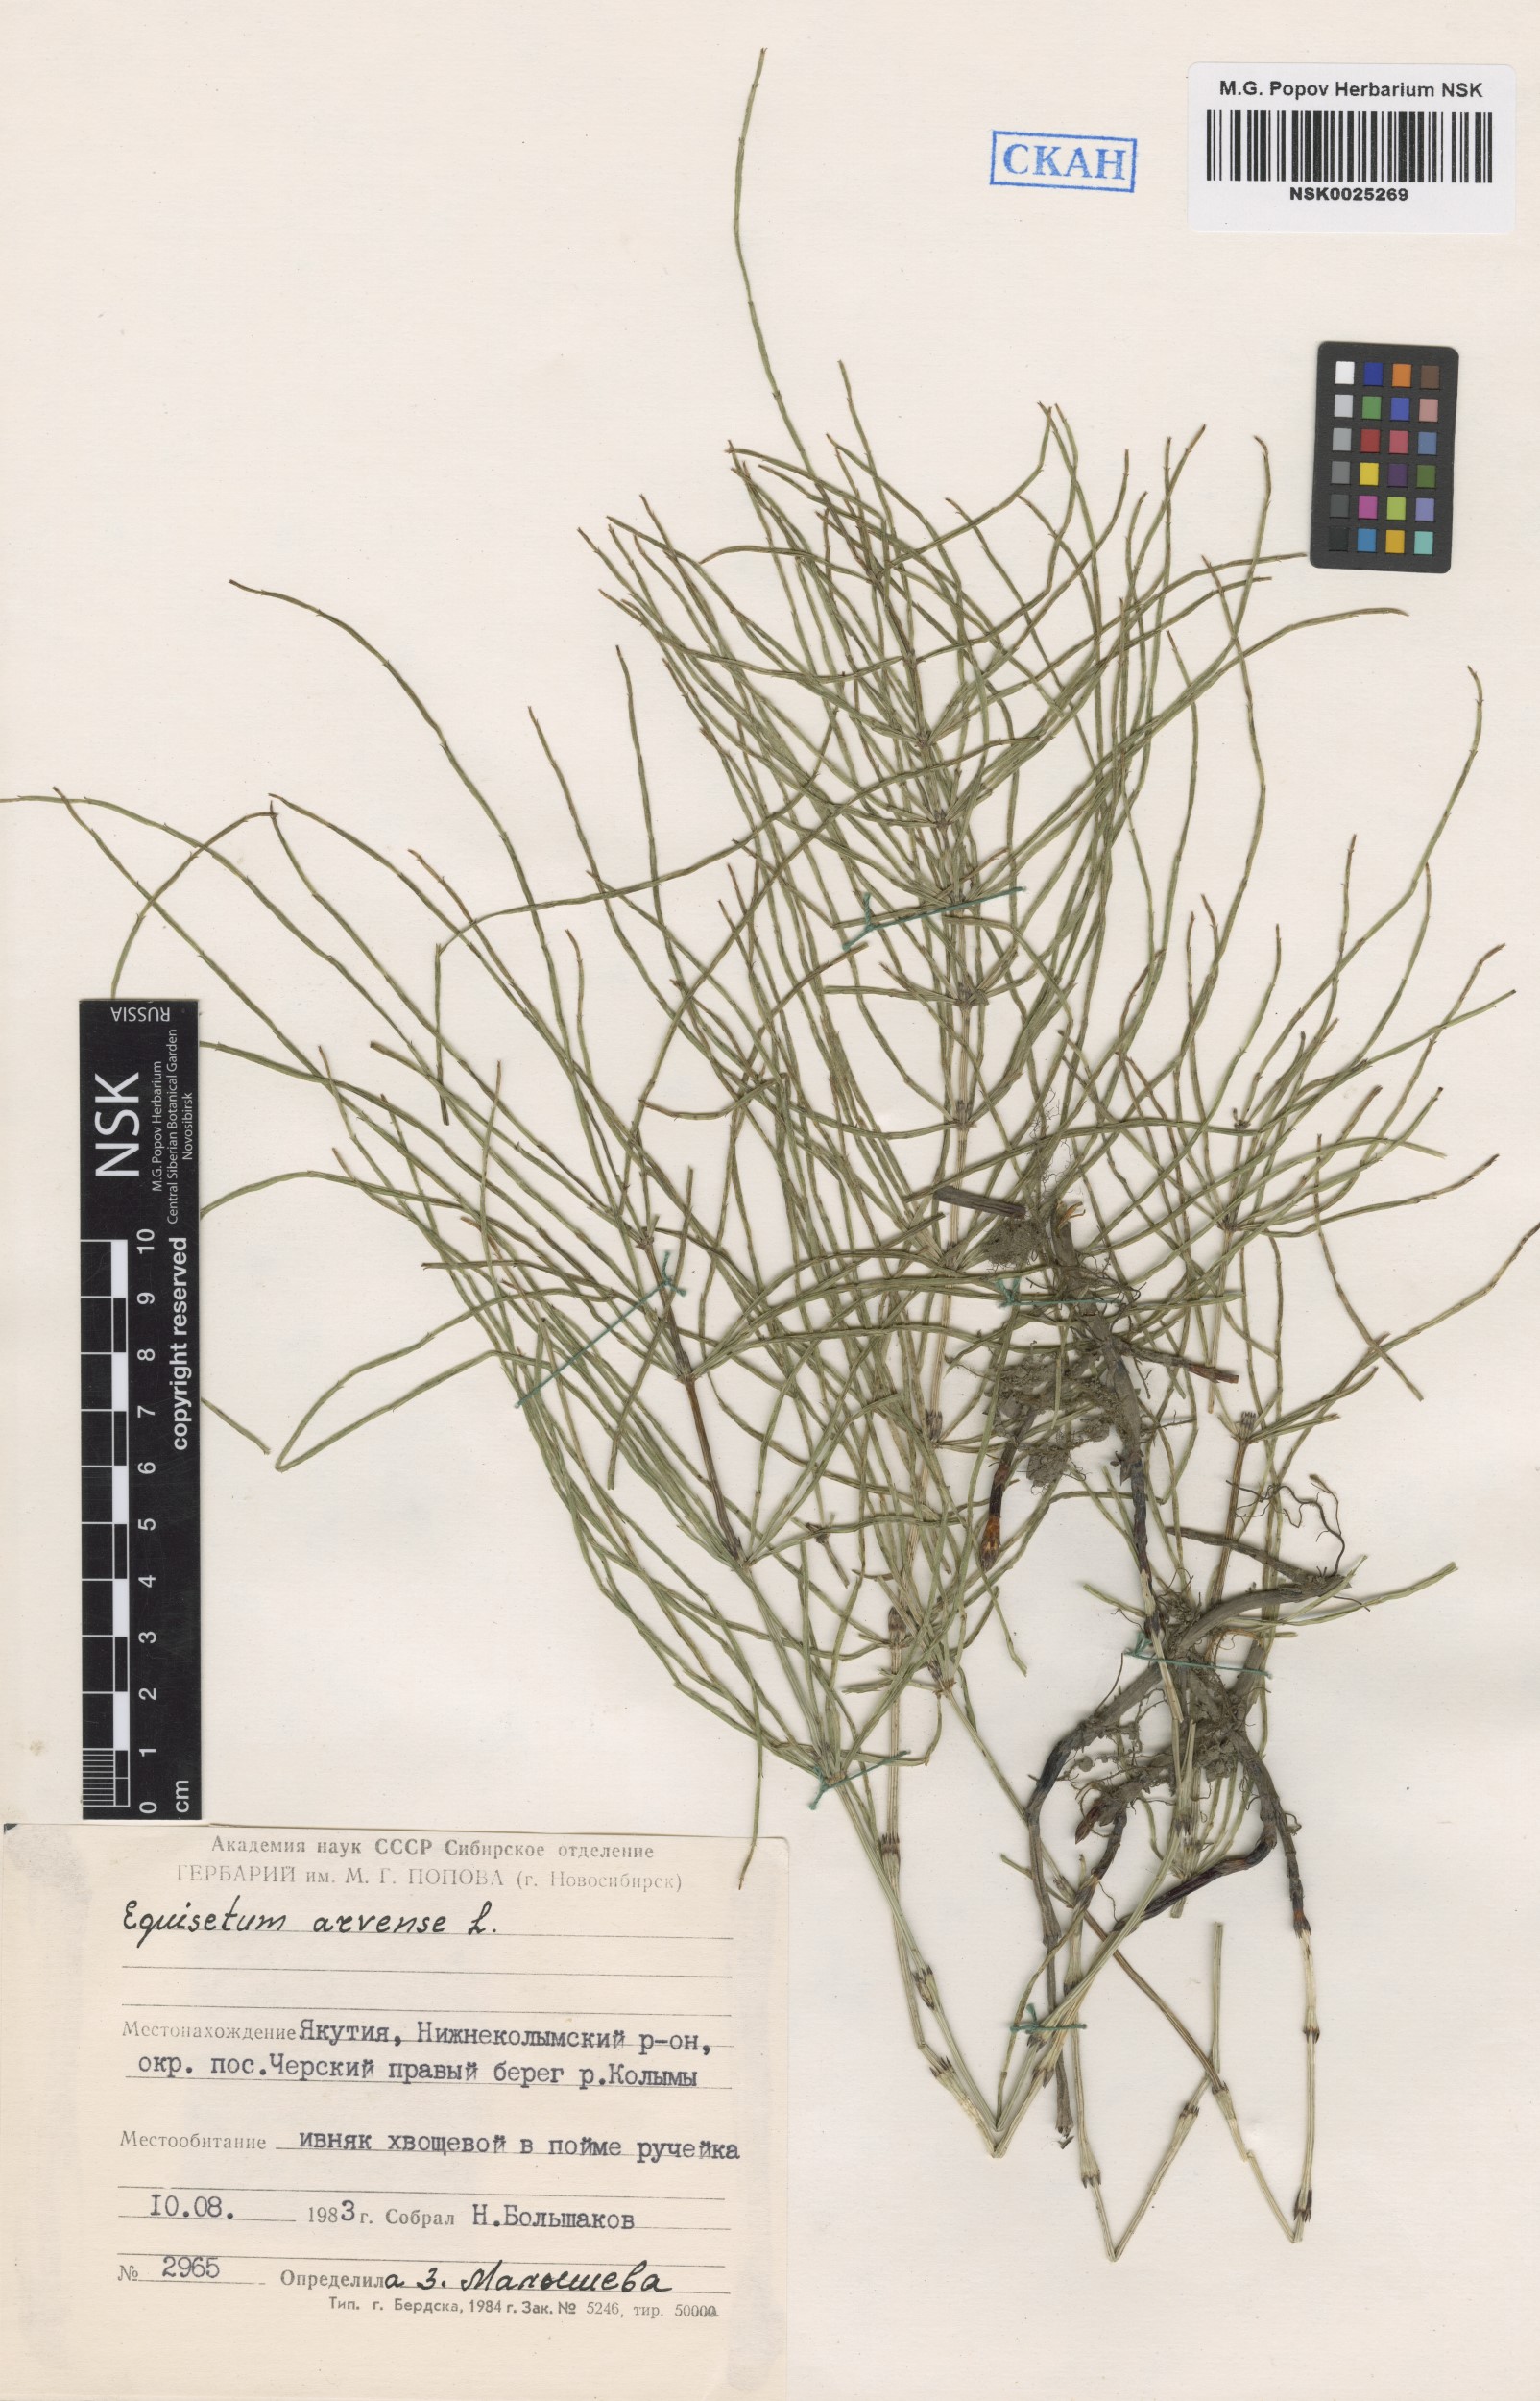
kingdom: Plantae
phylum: Tracheophyta
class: Polypodiopsida
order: Equisetales
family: Equisetaceae
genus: Equisetum
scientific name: Equisetum arvense
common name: Field horsetail
